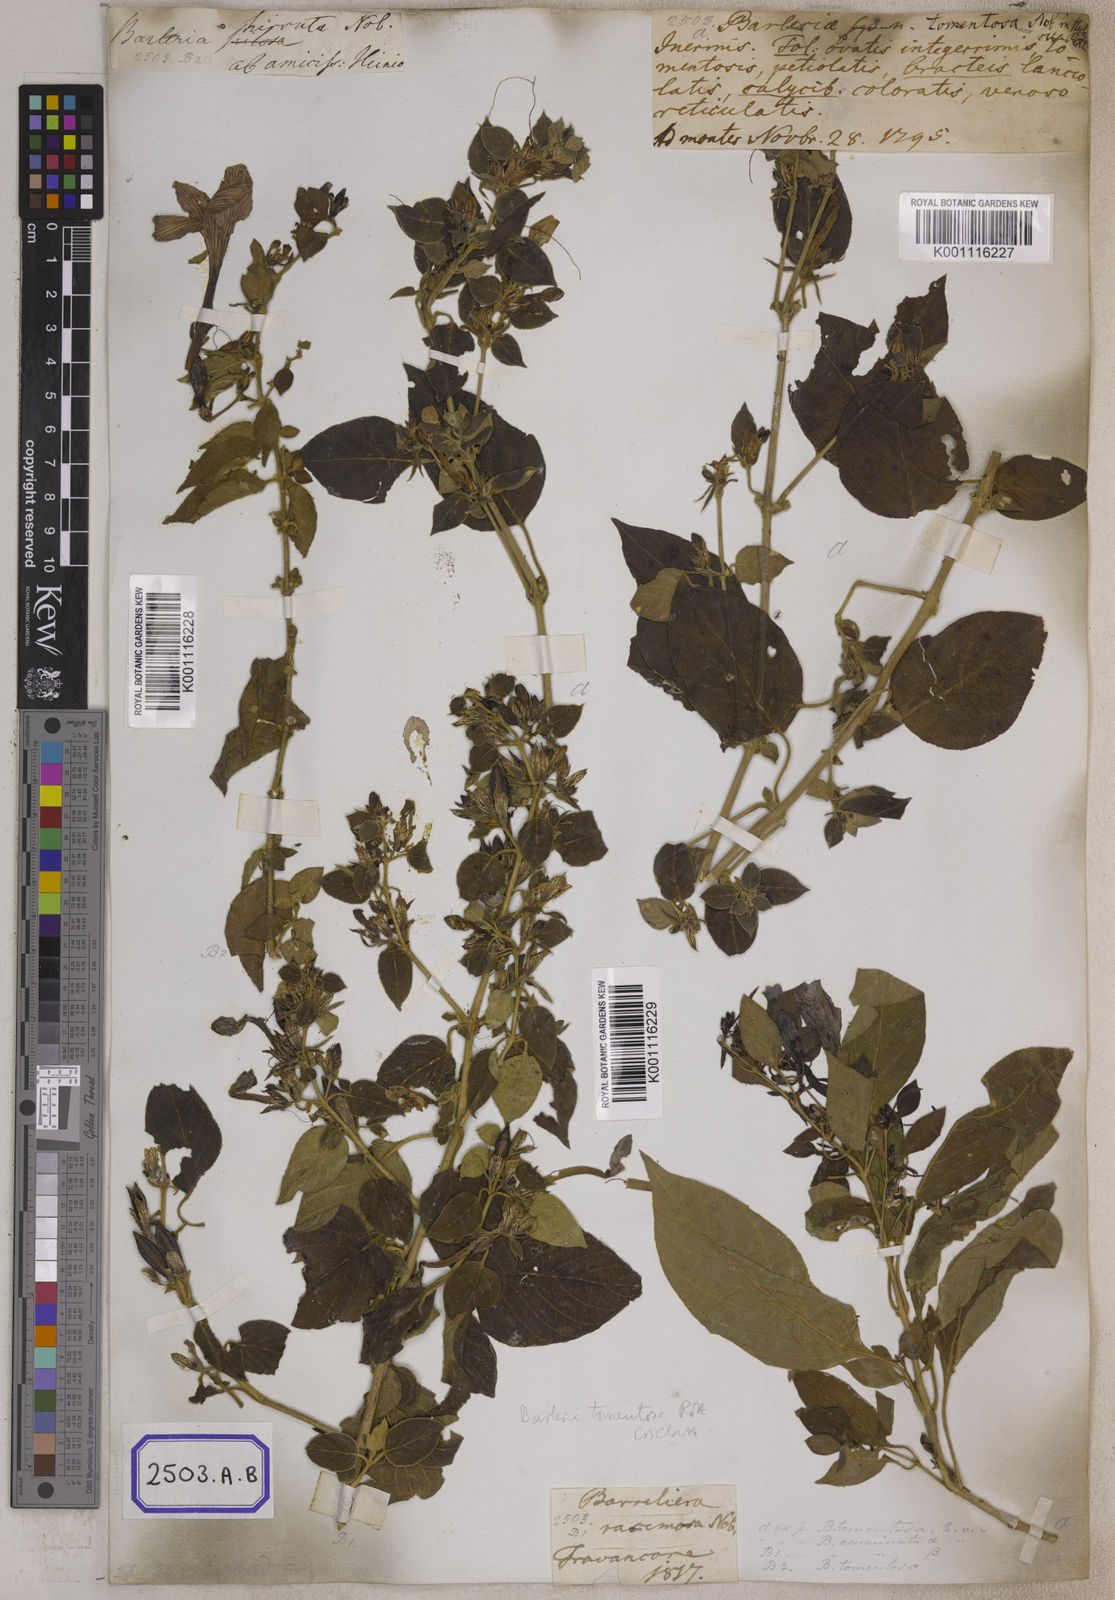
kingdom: Plantae
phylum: Tracheophyta
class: Magnoliopsida
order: Lamiales
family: Acanthaceae
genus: Barleria
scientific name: Barleria
